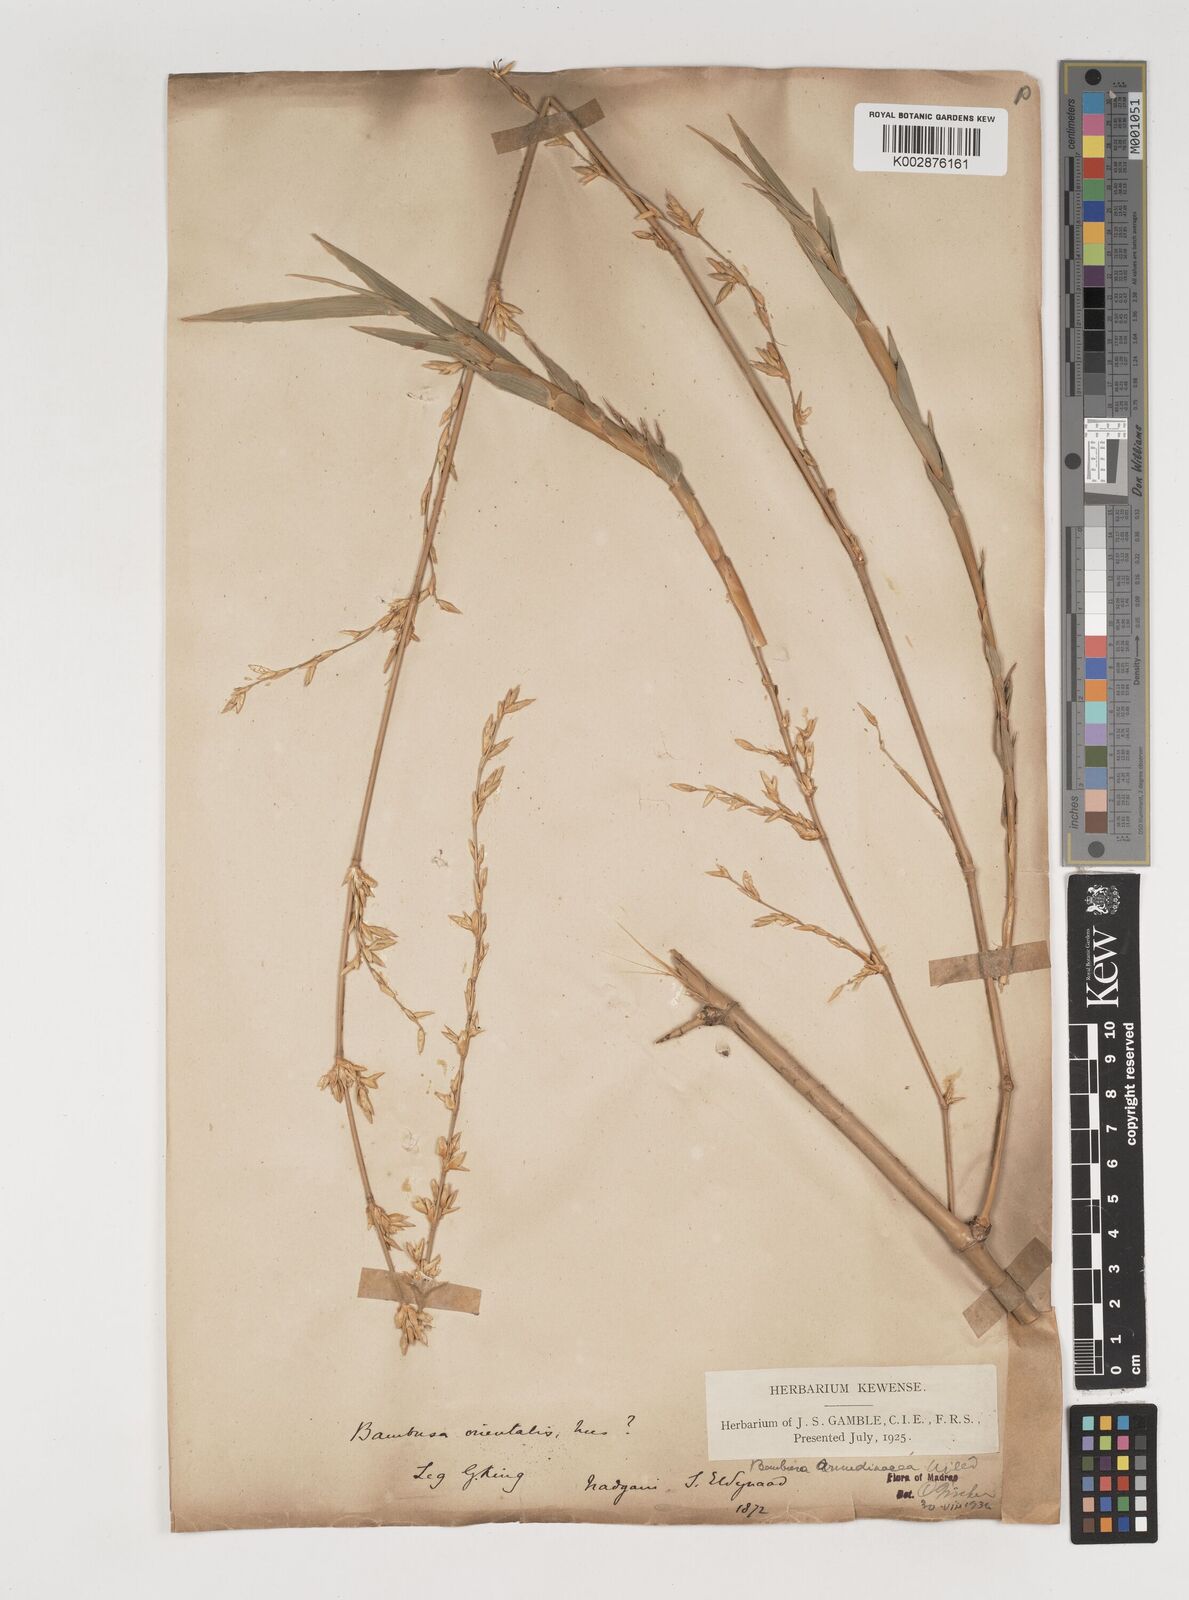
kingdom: Plantae
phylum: Tracheophyta
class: Liliopsida
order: Poales
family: Poaceae
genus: Bambusa
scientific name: Bambusa bambos
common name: Indian thorny bamboo
